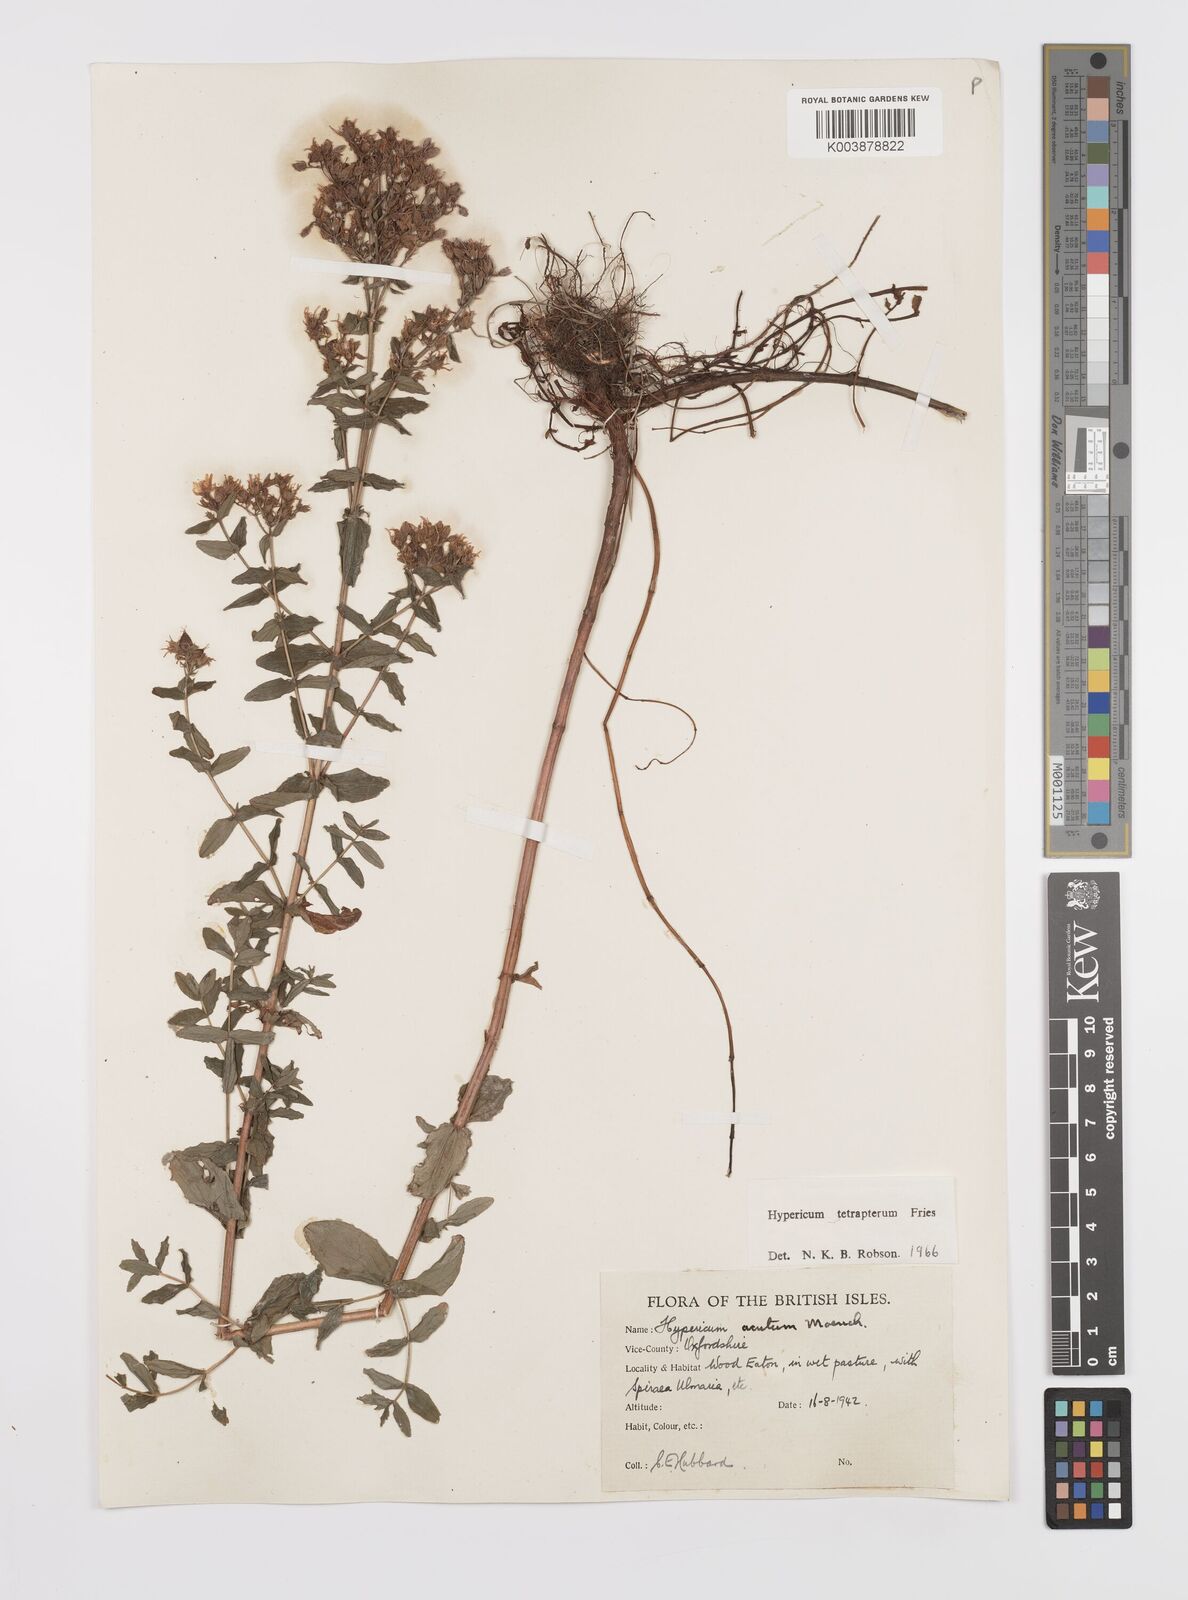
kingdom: Plantae
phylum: Tracheophyta
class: Magnoliopsida
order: Malpighiales
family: Hypericaceae
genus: Hypericum
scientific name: Hypericum tetrapterum
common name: Square-stalked st. john's-wort
